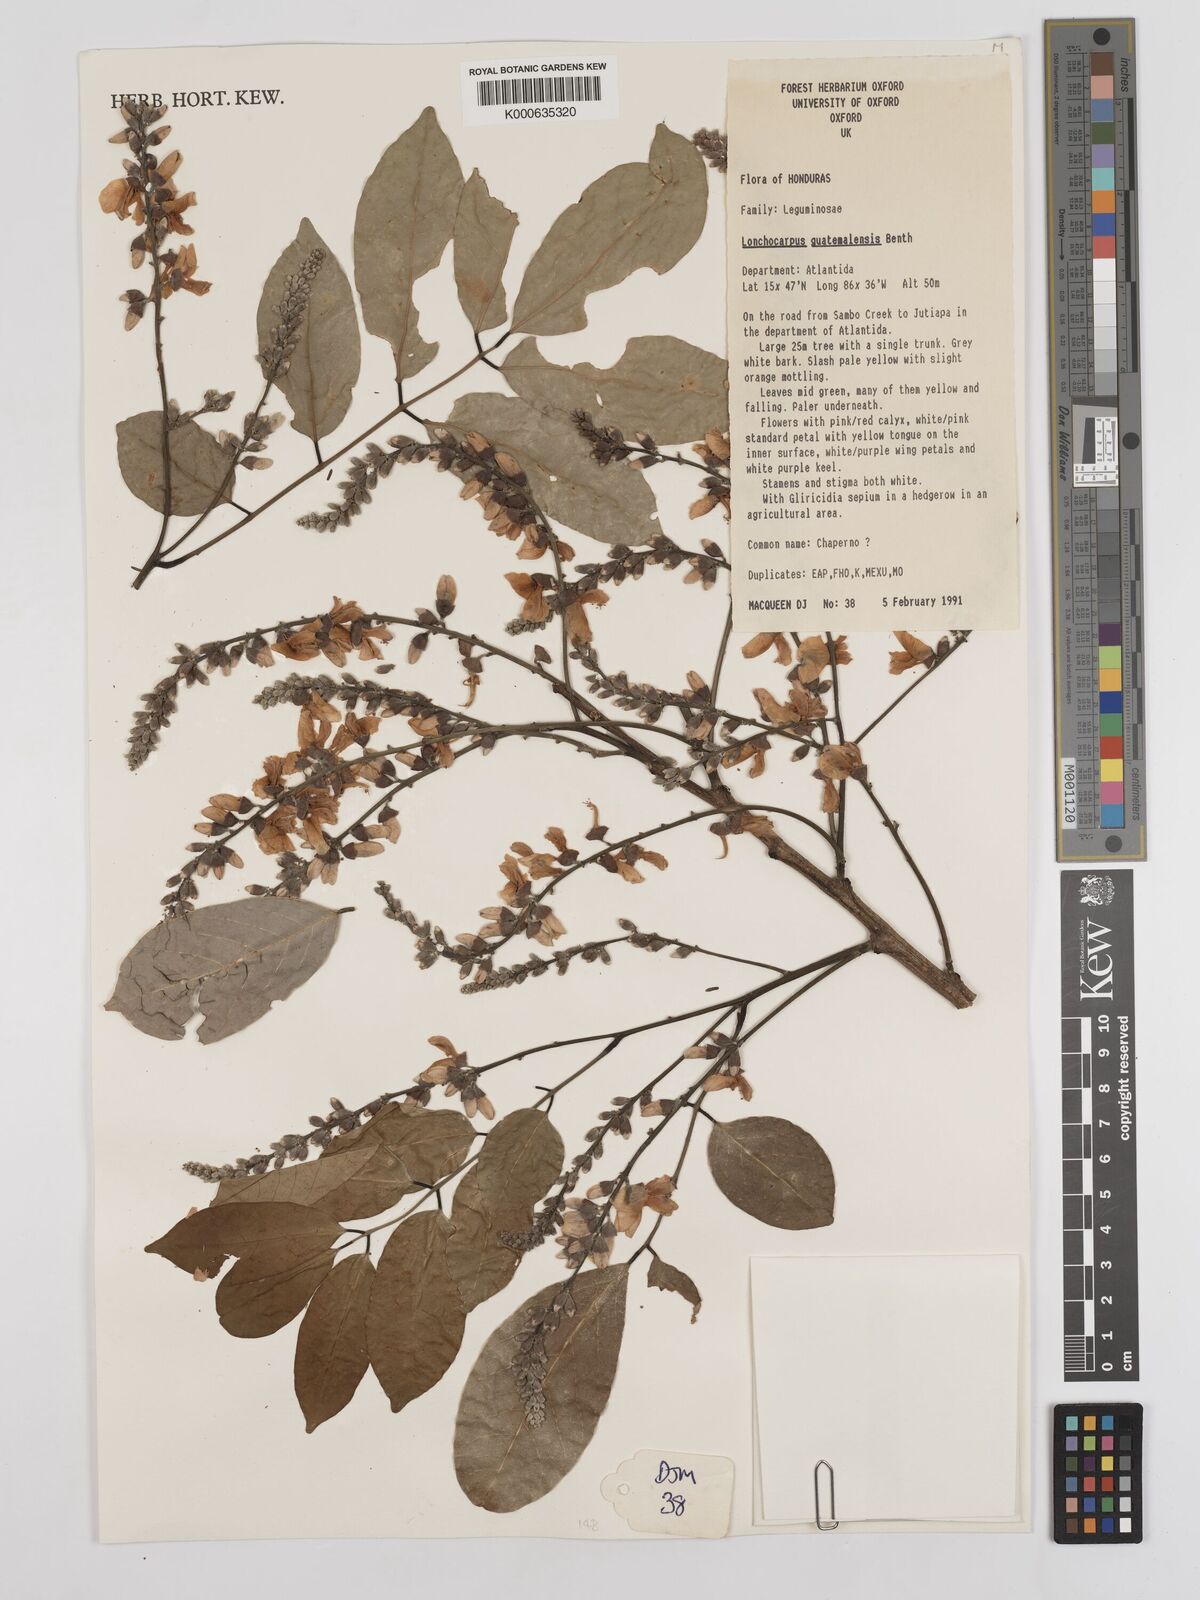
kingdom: Plantae
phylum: Tracheophyta
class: Magnoliopsida
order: Fabales
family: Fabaceae
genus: Lonchocarpus
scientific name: Lonchocarpus guatemalensis
